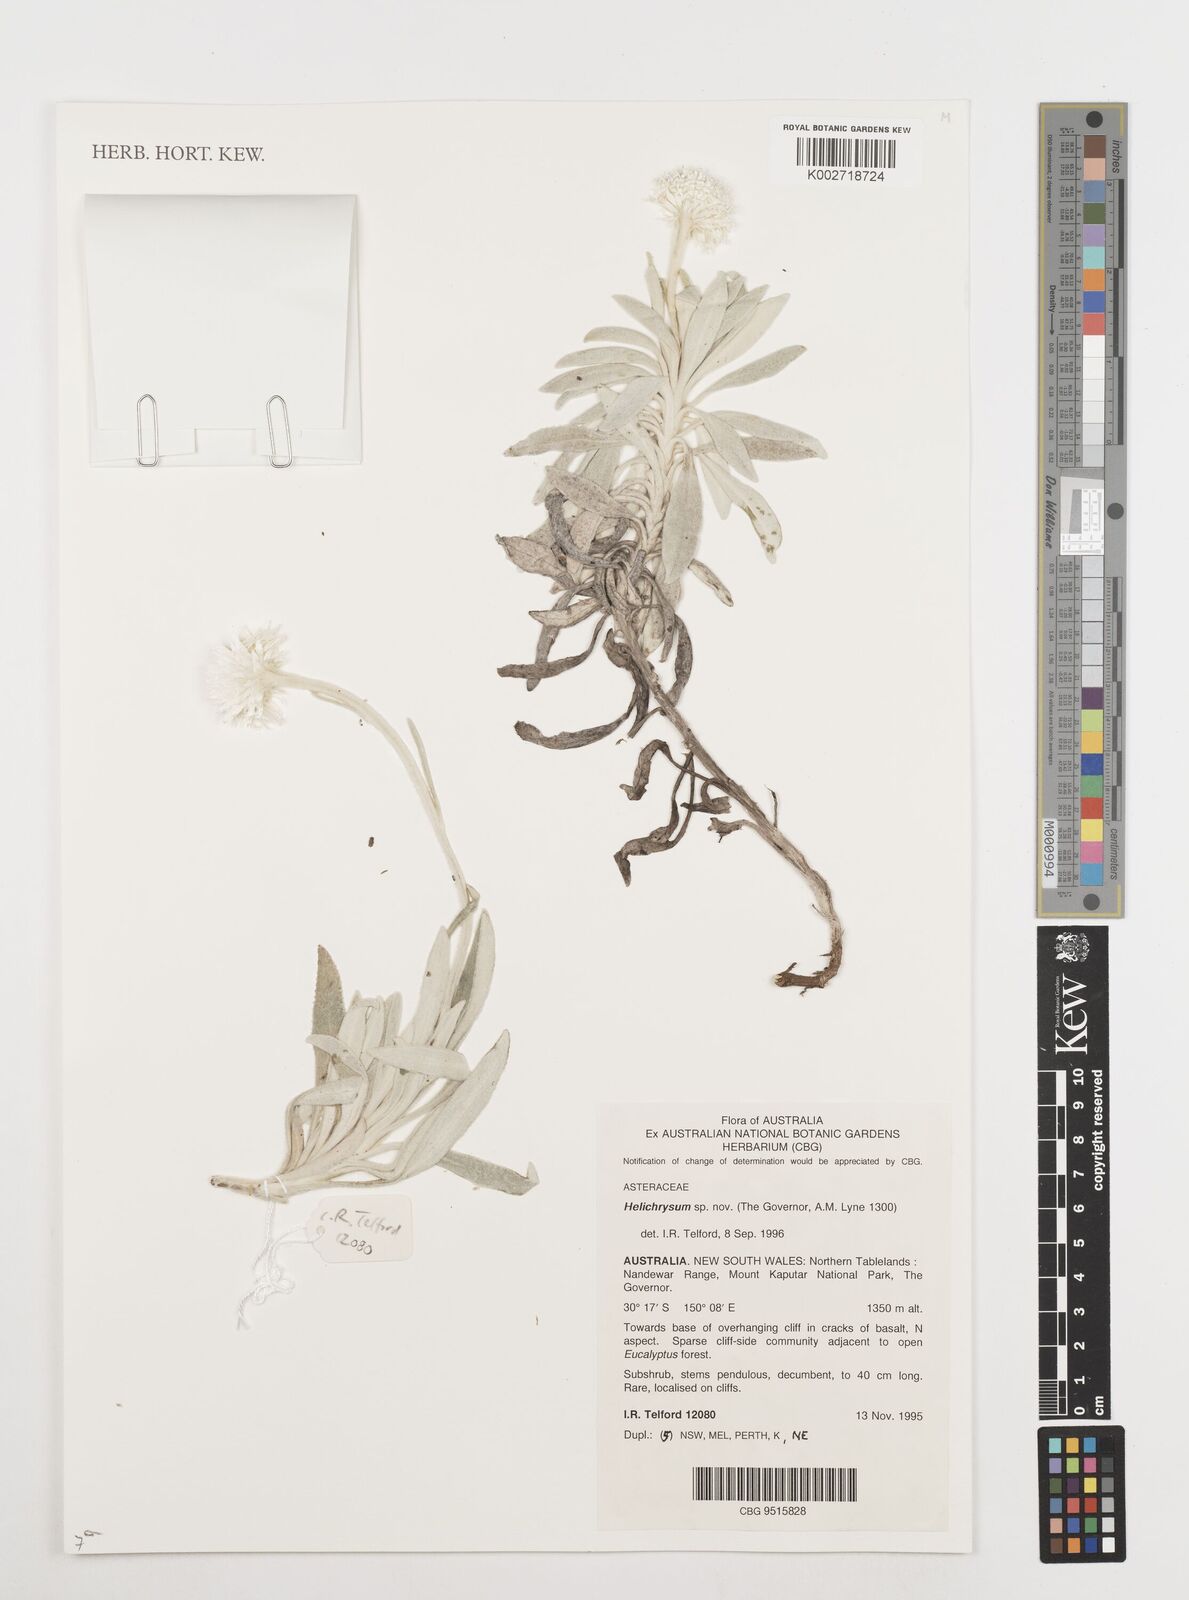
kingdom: Plantae
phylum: Tracheophyta
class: Magnoliopsida
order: Asterales
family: Asteraceae
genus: Coronidium
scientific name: Coronidium
